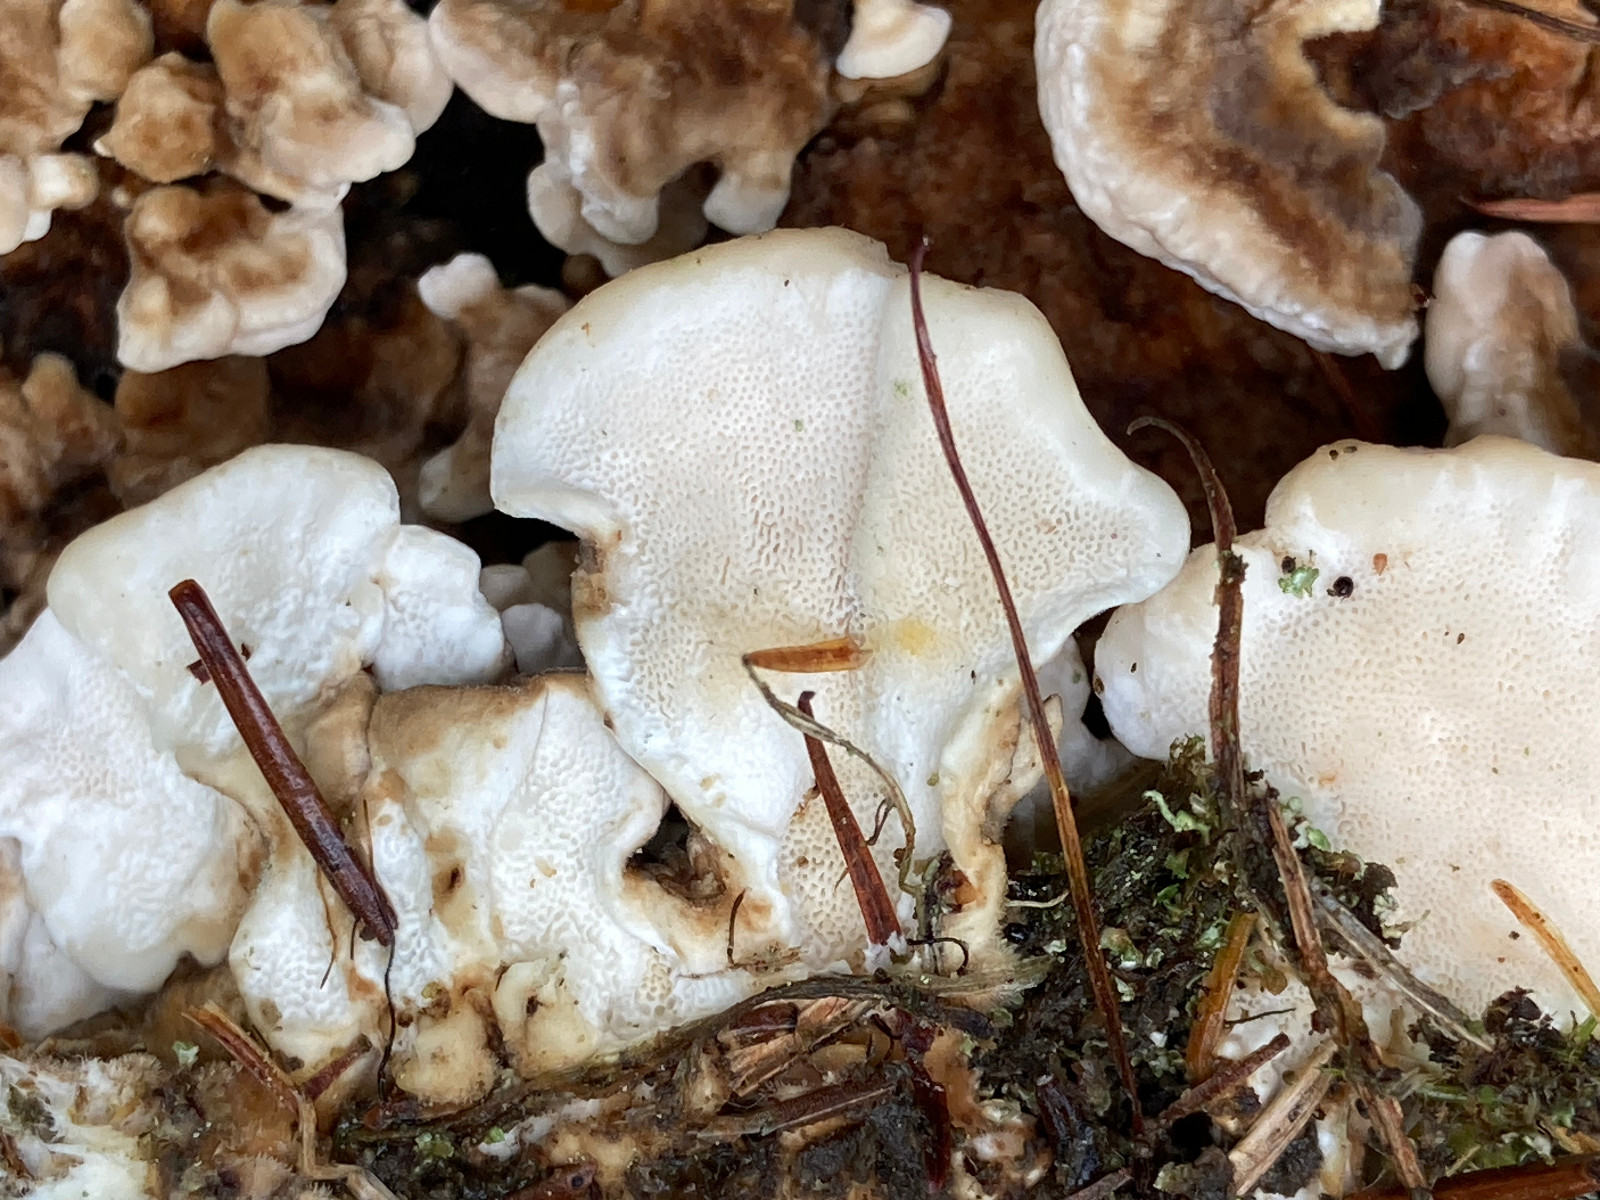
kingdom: Fungi
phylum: Basidiomycota
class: Agaricomycetes
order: Polyporales
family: Polyporaceae
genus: Trametes
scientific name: Trametes versicolor
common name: broget læderporesvamp
